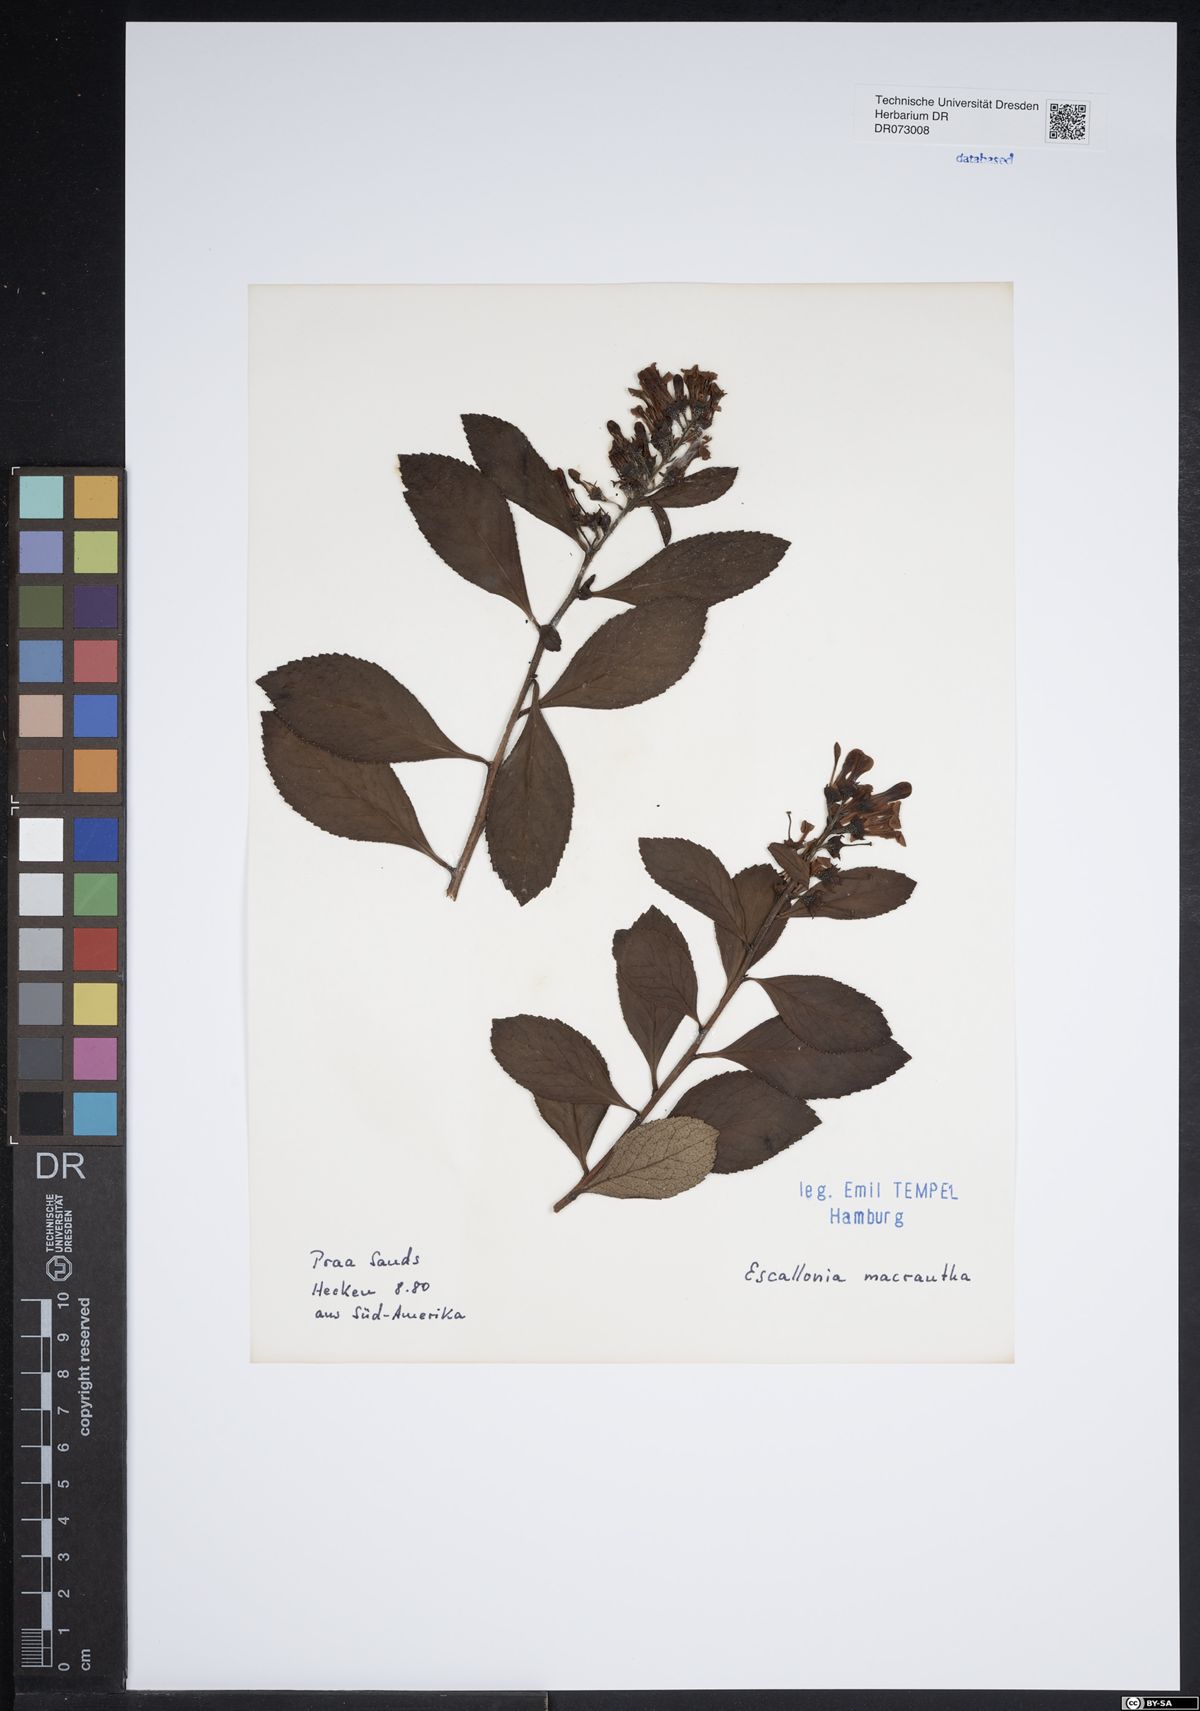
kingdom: Plantae
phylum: Tracheophyta
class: Magnoliopsida
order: Escalloniales
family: Escalloniaceae
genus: Escallonia
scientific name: Escallonia rubra
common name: Redclaws
